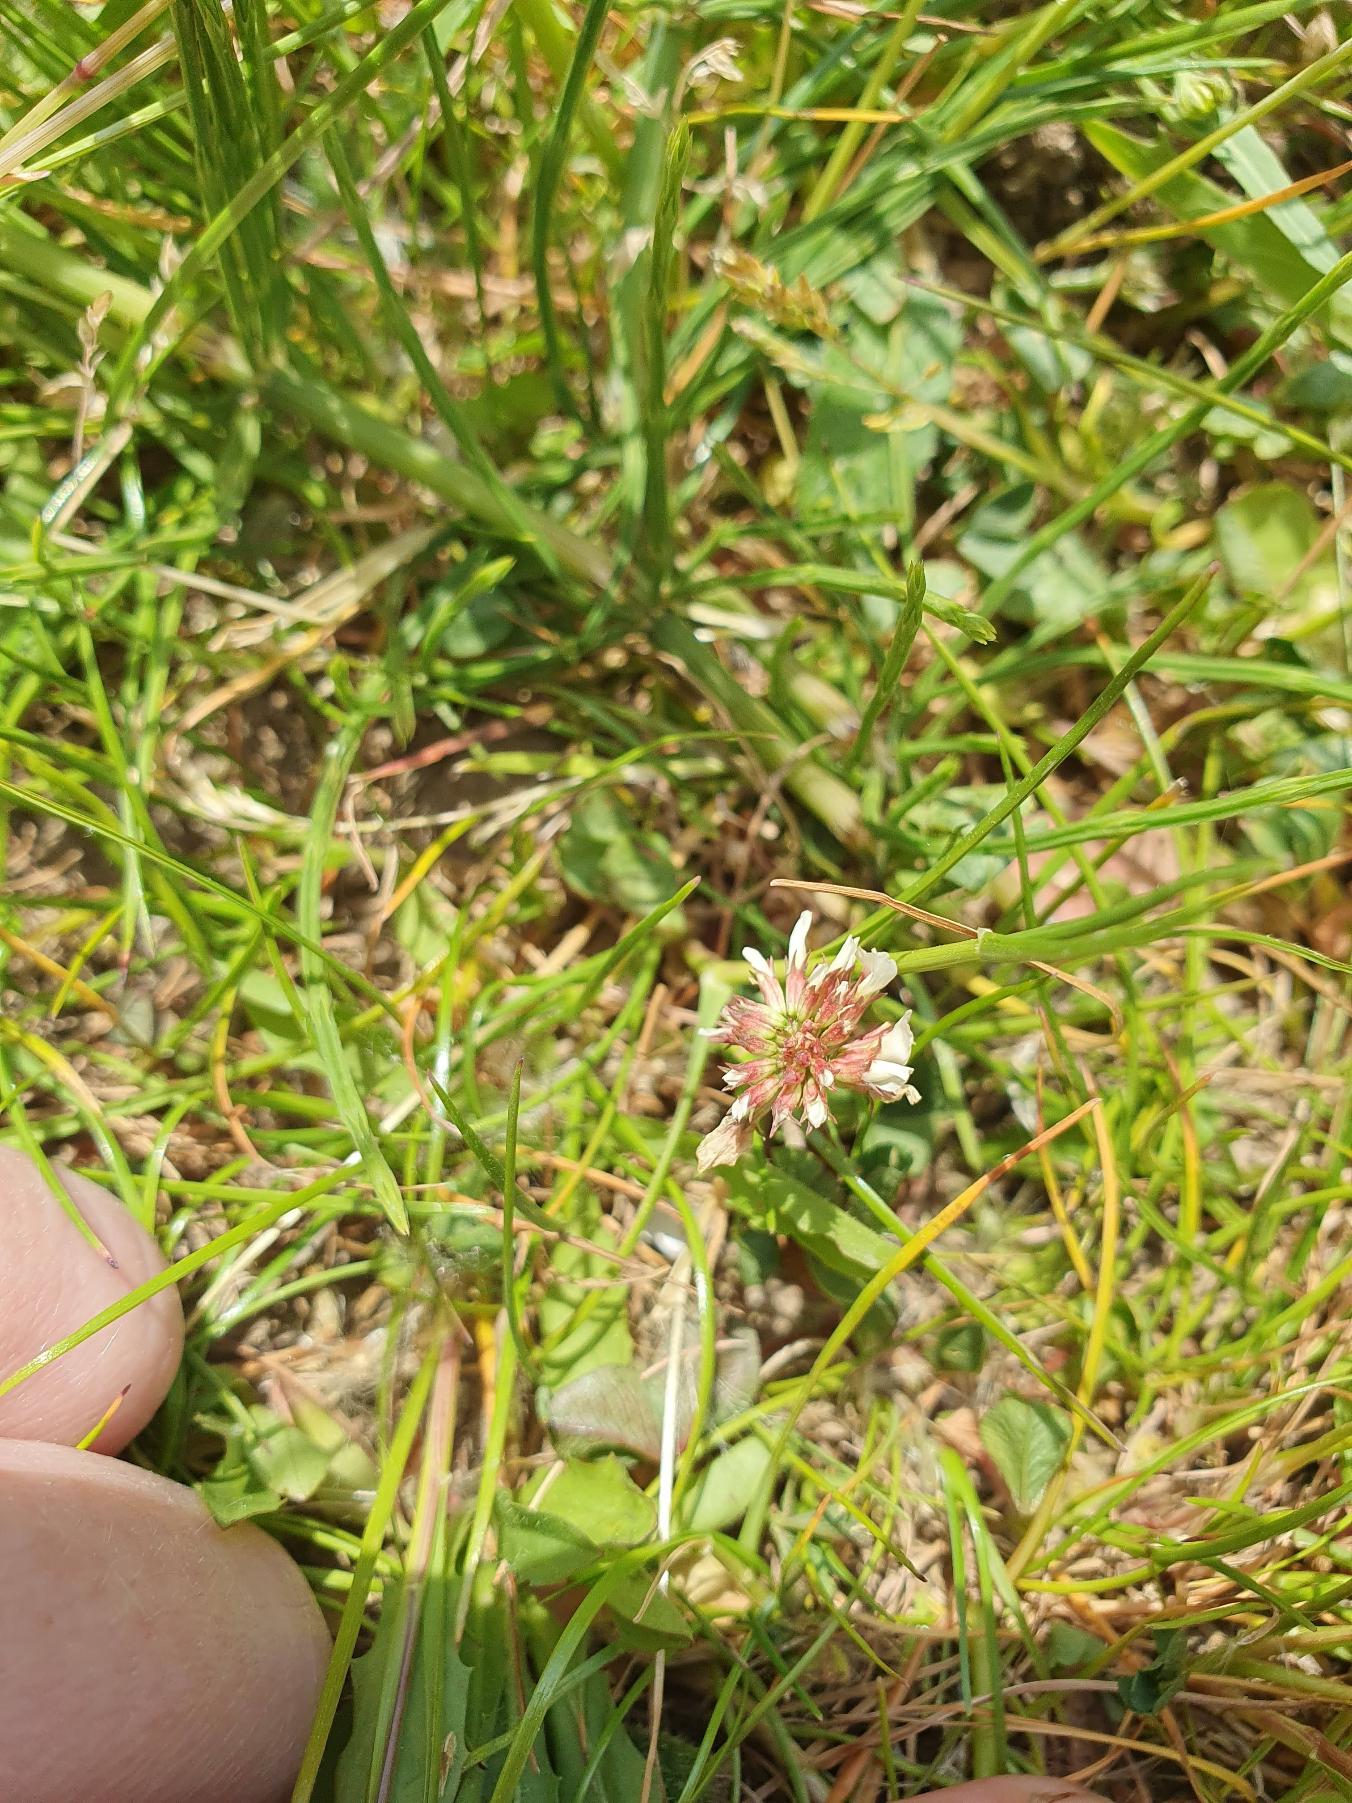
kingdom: Plantae
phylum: Tracheophyta
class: Magnoliopsida
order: Fabales
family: Fabaceae
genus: Trifolium
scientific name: Trifolium repens
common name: Hvid-kløver
